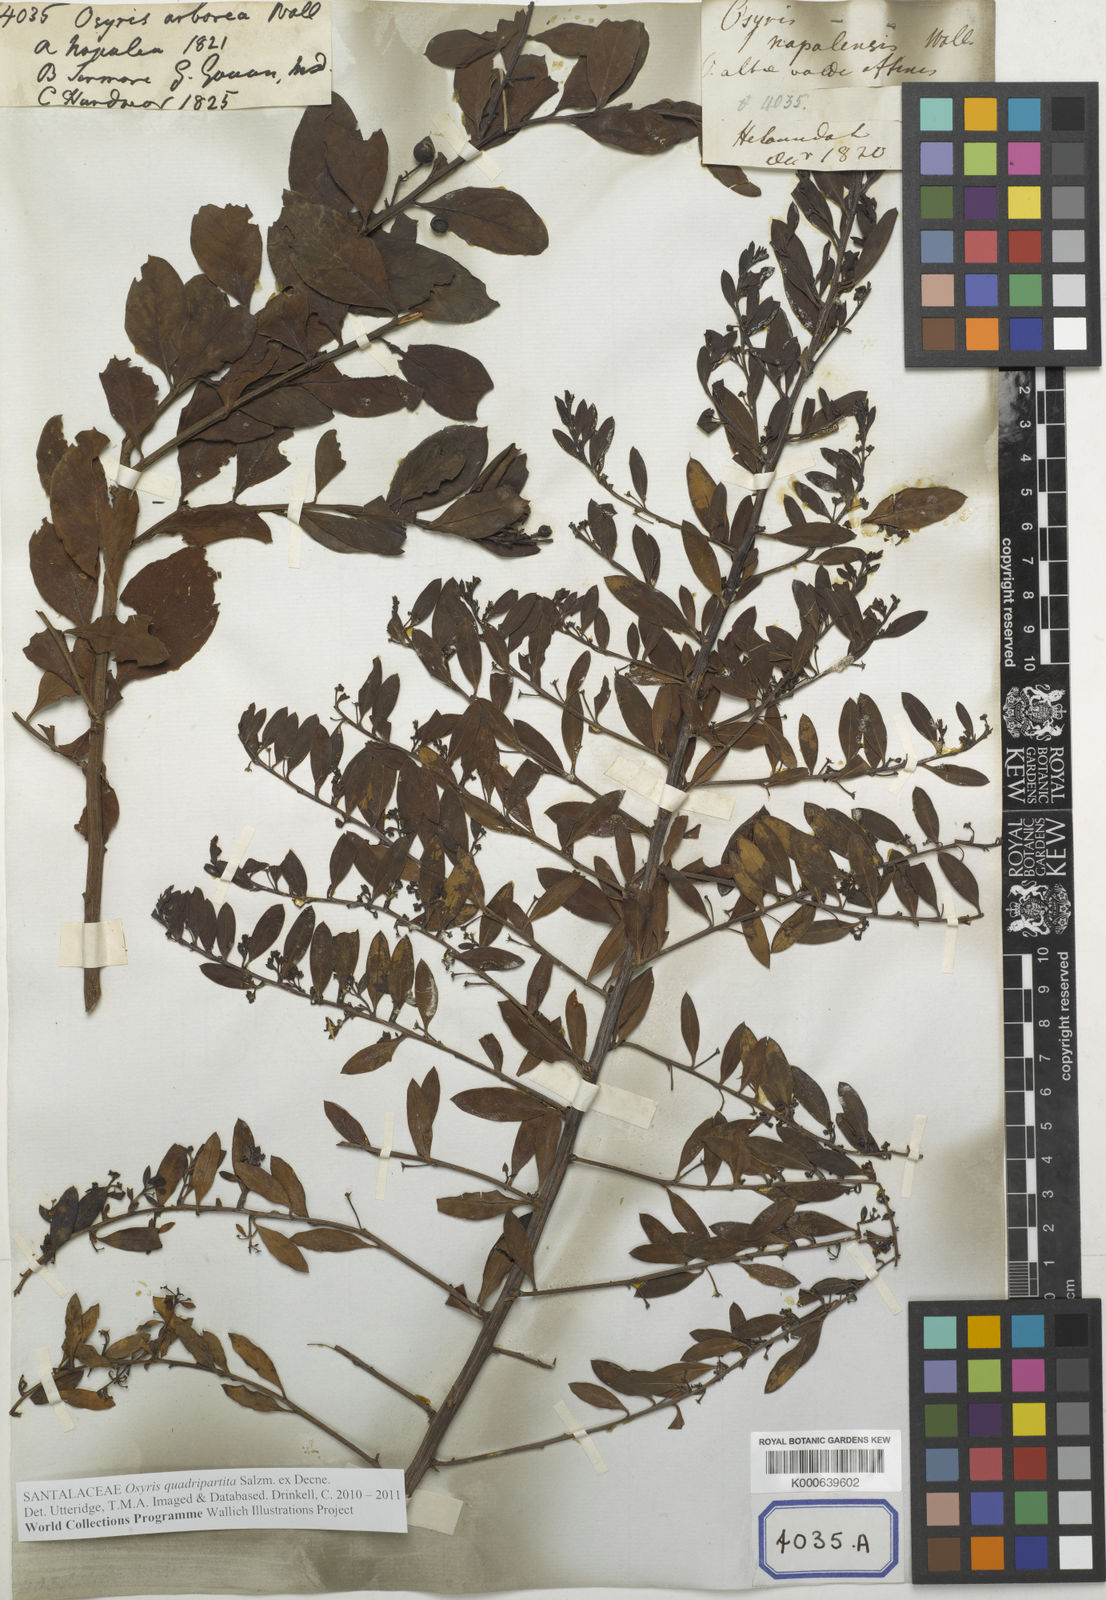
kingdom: Plantae
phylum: Tracheophyta
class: Magnoliopsida
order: Santalales
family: Santalaceae
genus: Osyris
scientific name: Osyris
